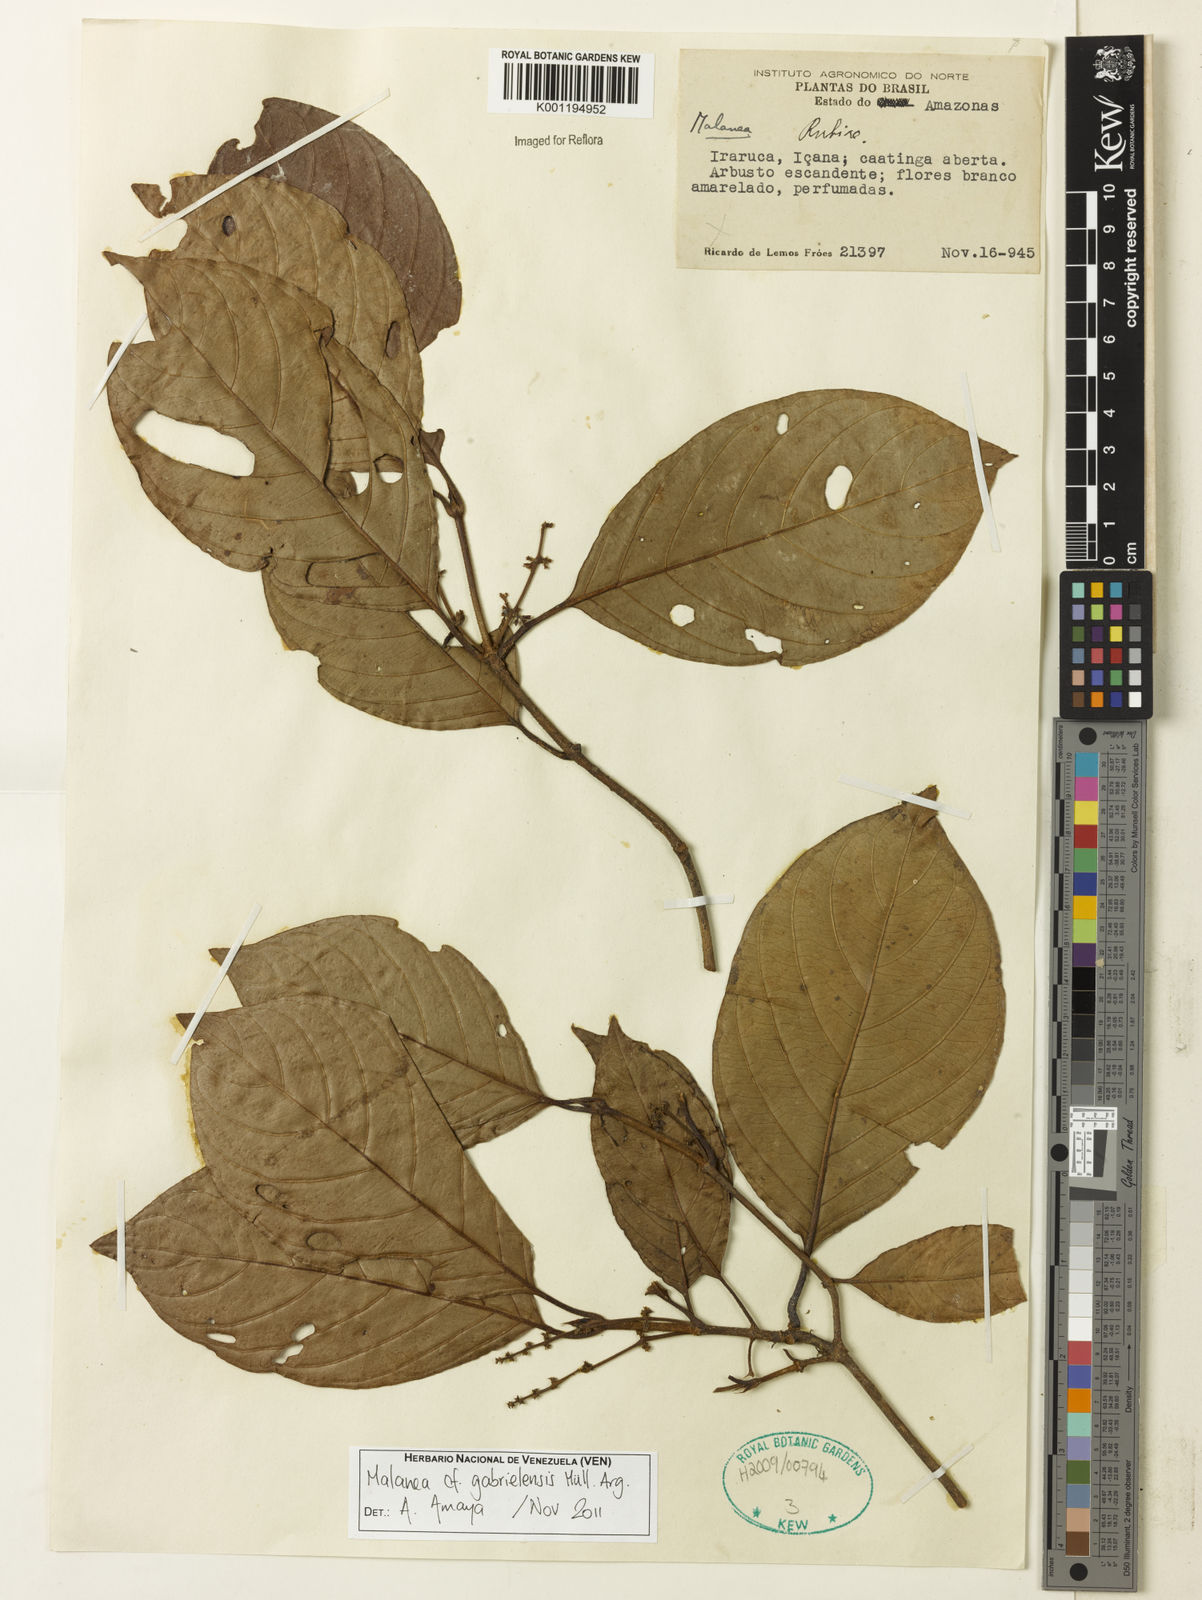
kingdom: Plantae
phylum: Tracheophyta
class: Magnoliopsida
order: Gentianales
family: Rubiaceae
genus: Malanea
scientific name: Malanea
